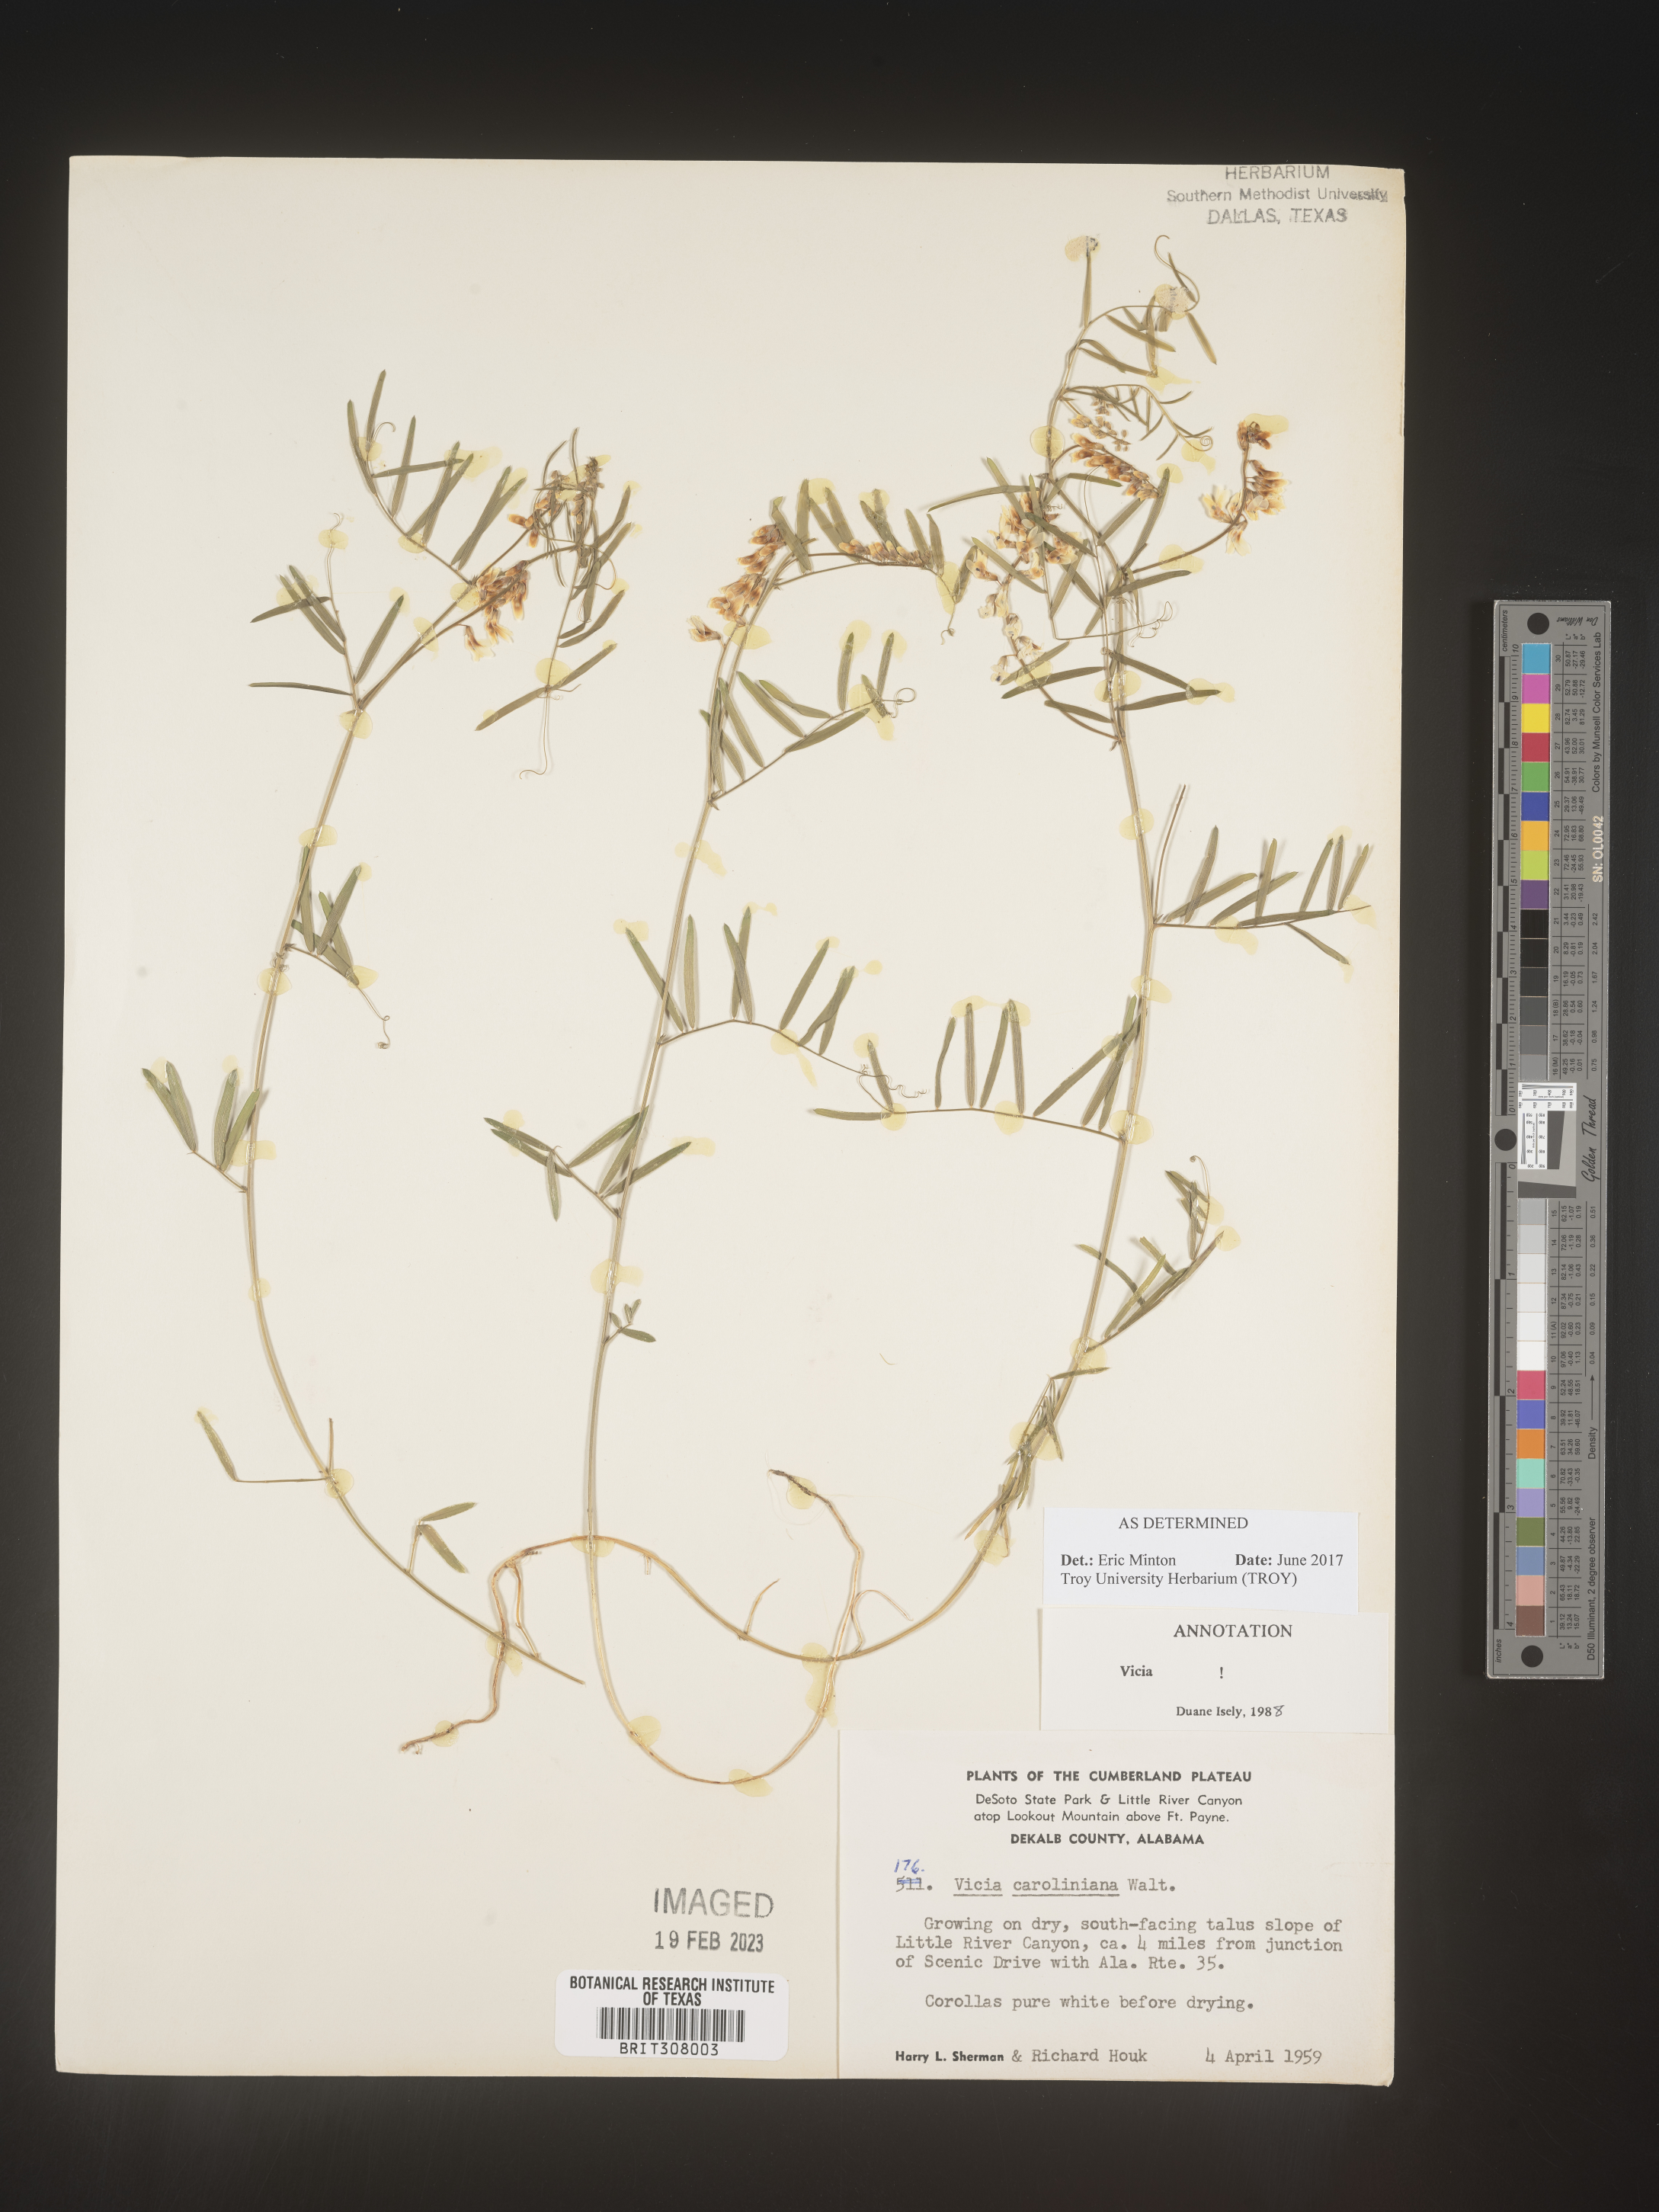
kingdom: Plantae
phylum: Tracheophyta
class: Magnoliopsida
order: Fabales
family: Fabaceae
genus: Vicia
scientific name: Vicia caroliniana
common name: Carolina vetch
